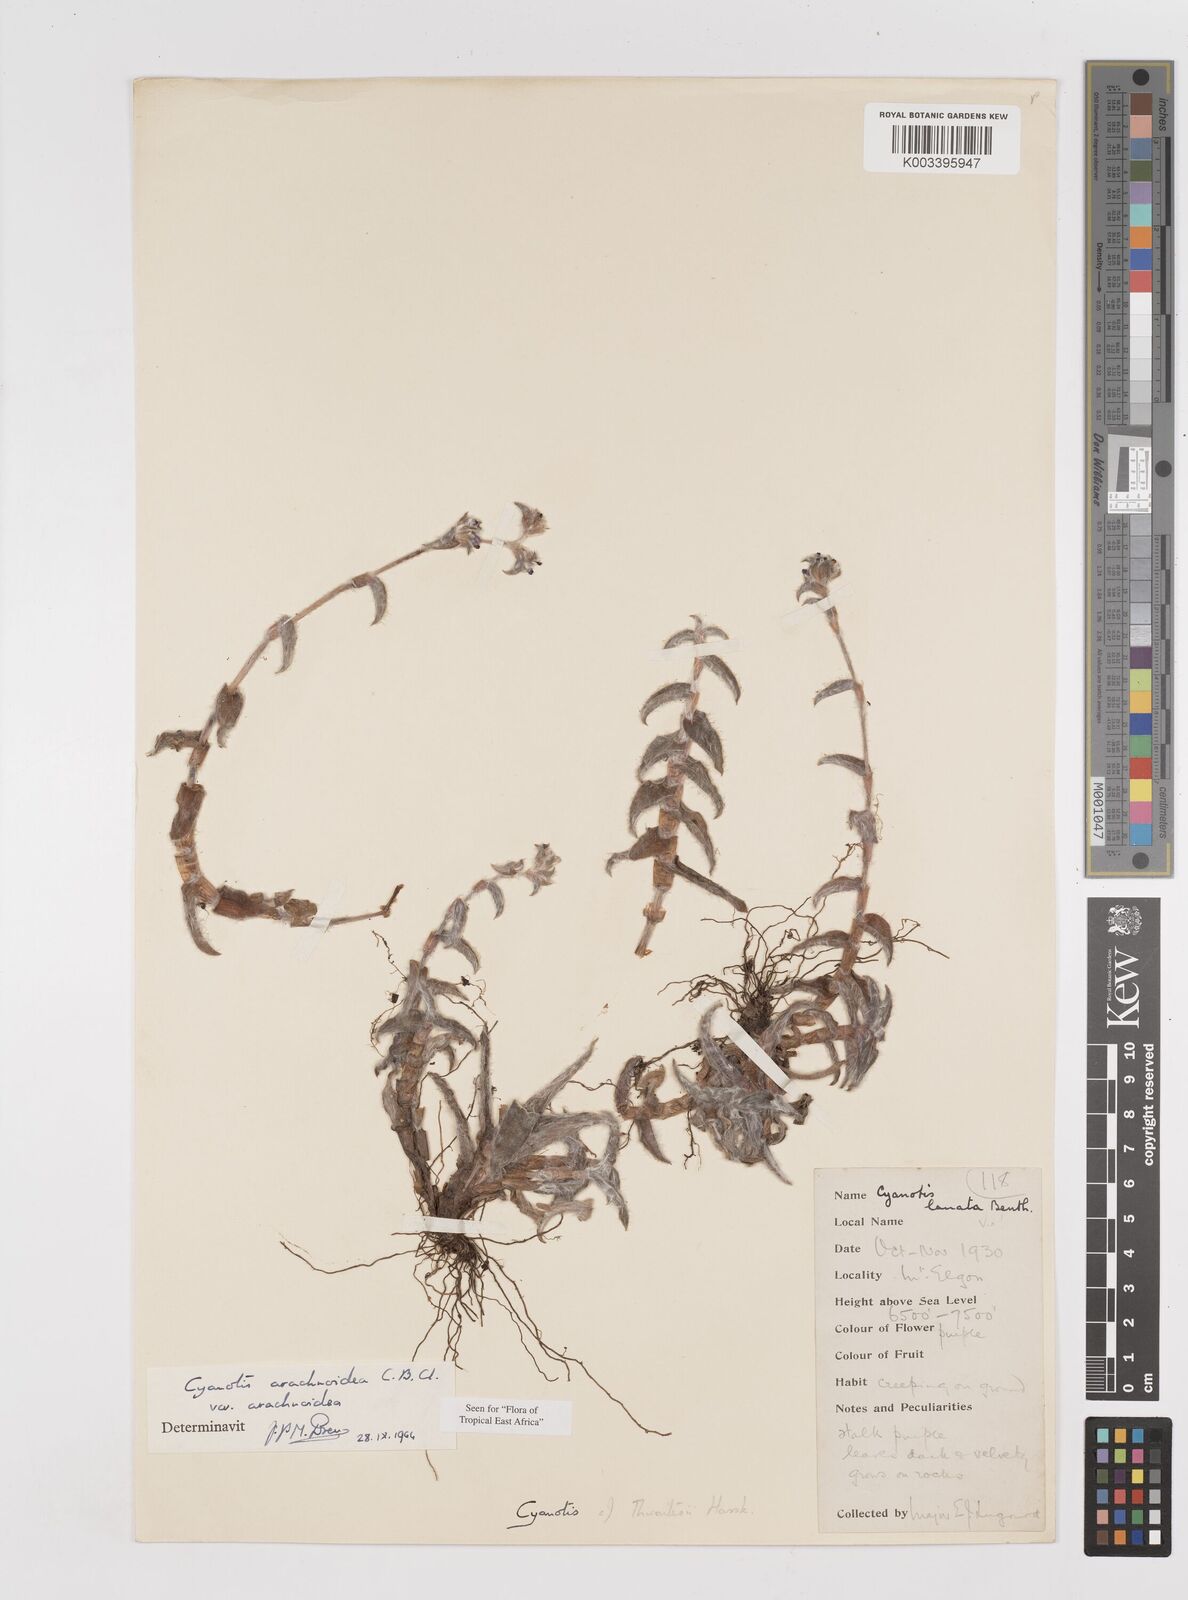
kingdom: Plantae
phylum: Tracheophyta
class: Liliopsida
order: Commelinales
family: Commelinaceae
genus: Cyanotis
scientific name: Cyanotis arachnoidea
